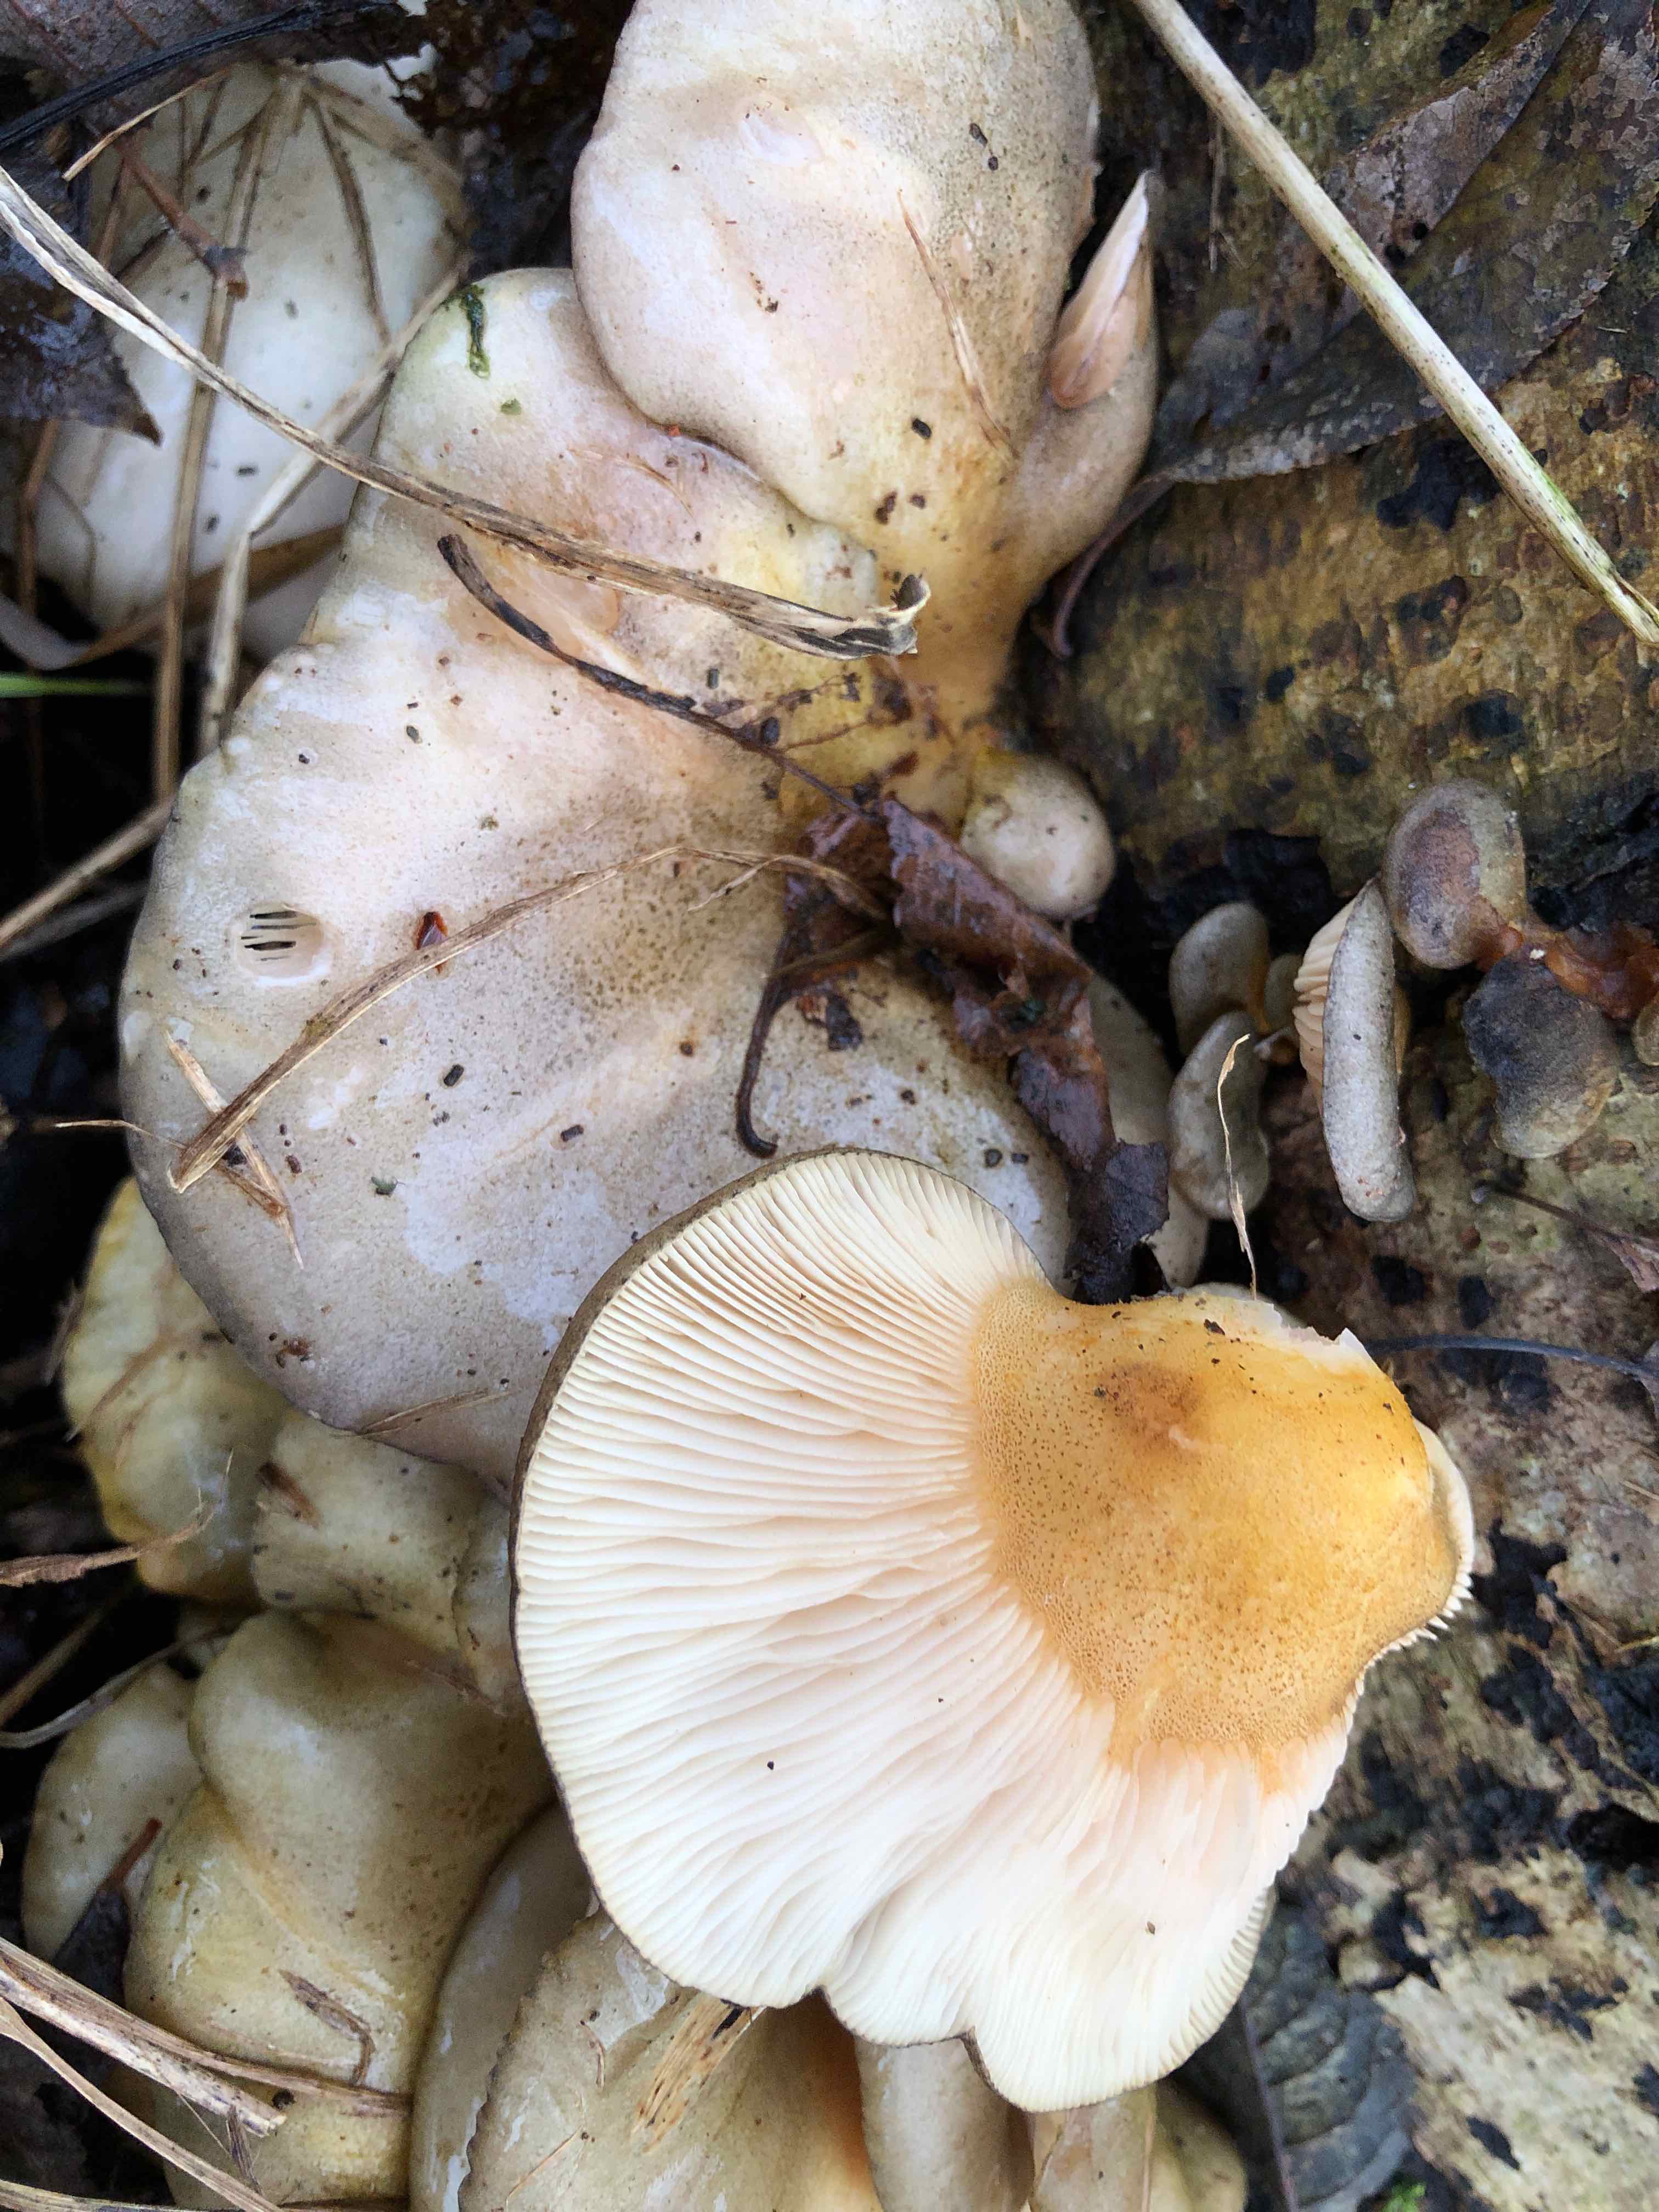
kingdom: Fungi
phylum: Basidiomycota
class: Agaricomycetes
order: Agaricales
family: Sarcomyxaceae
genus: Sarcomyxa
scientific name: Sarcomyxa serotina
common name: gummihat
